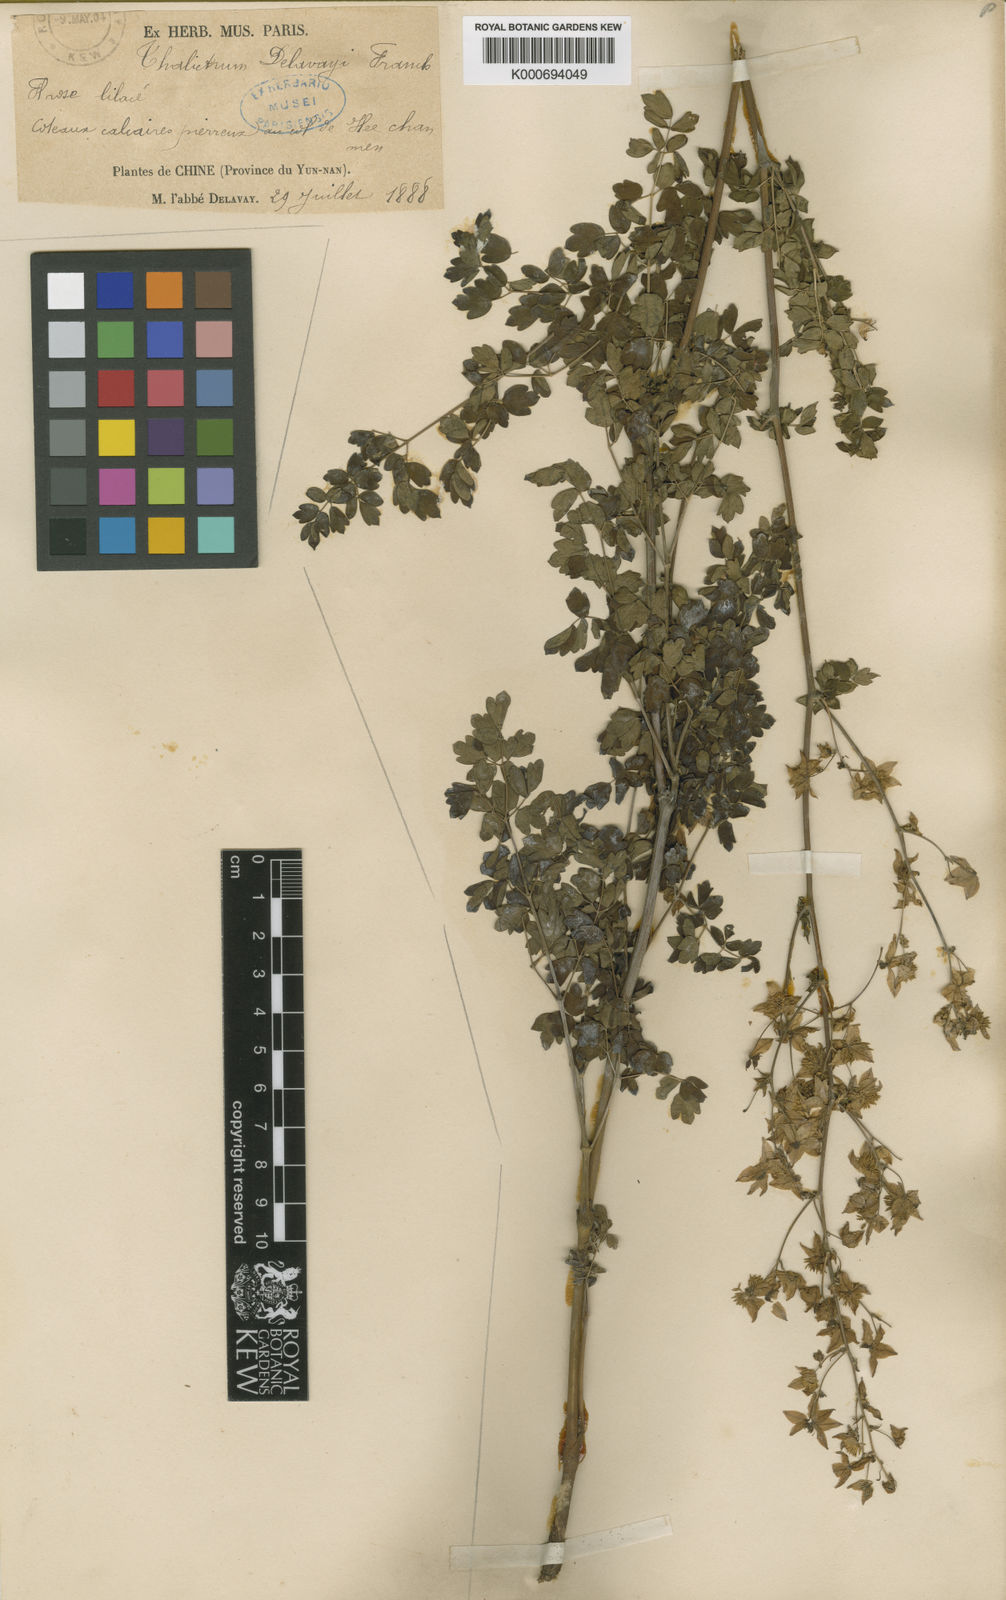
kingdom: Plantae
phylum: Tracheophyta
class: Magnoliopsida
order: Ranunculales
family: Ranunculaceae
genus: Thalictrum
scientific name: Thalictrum delavayi
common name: Chinese meadow-rue
